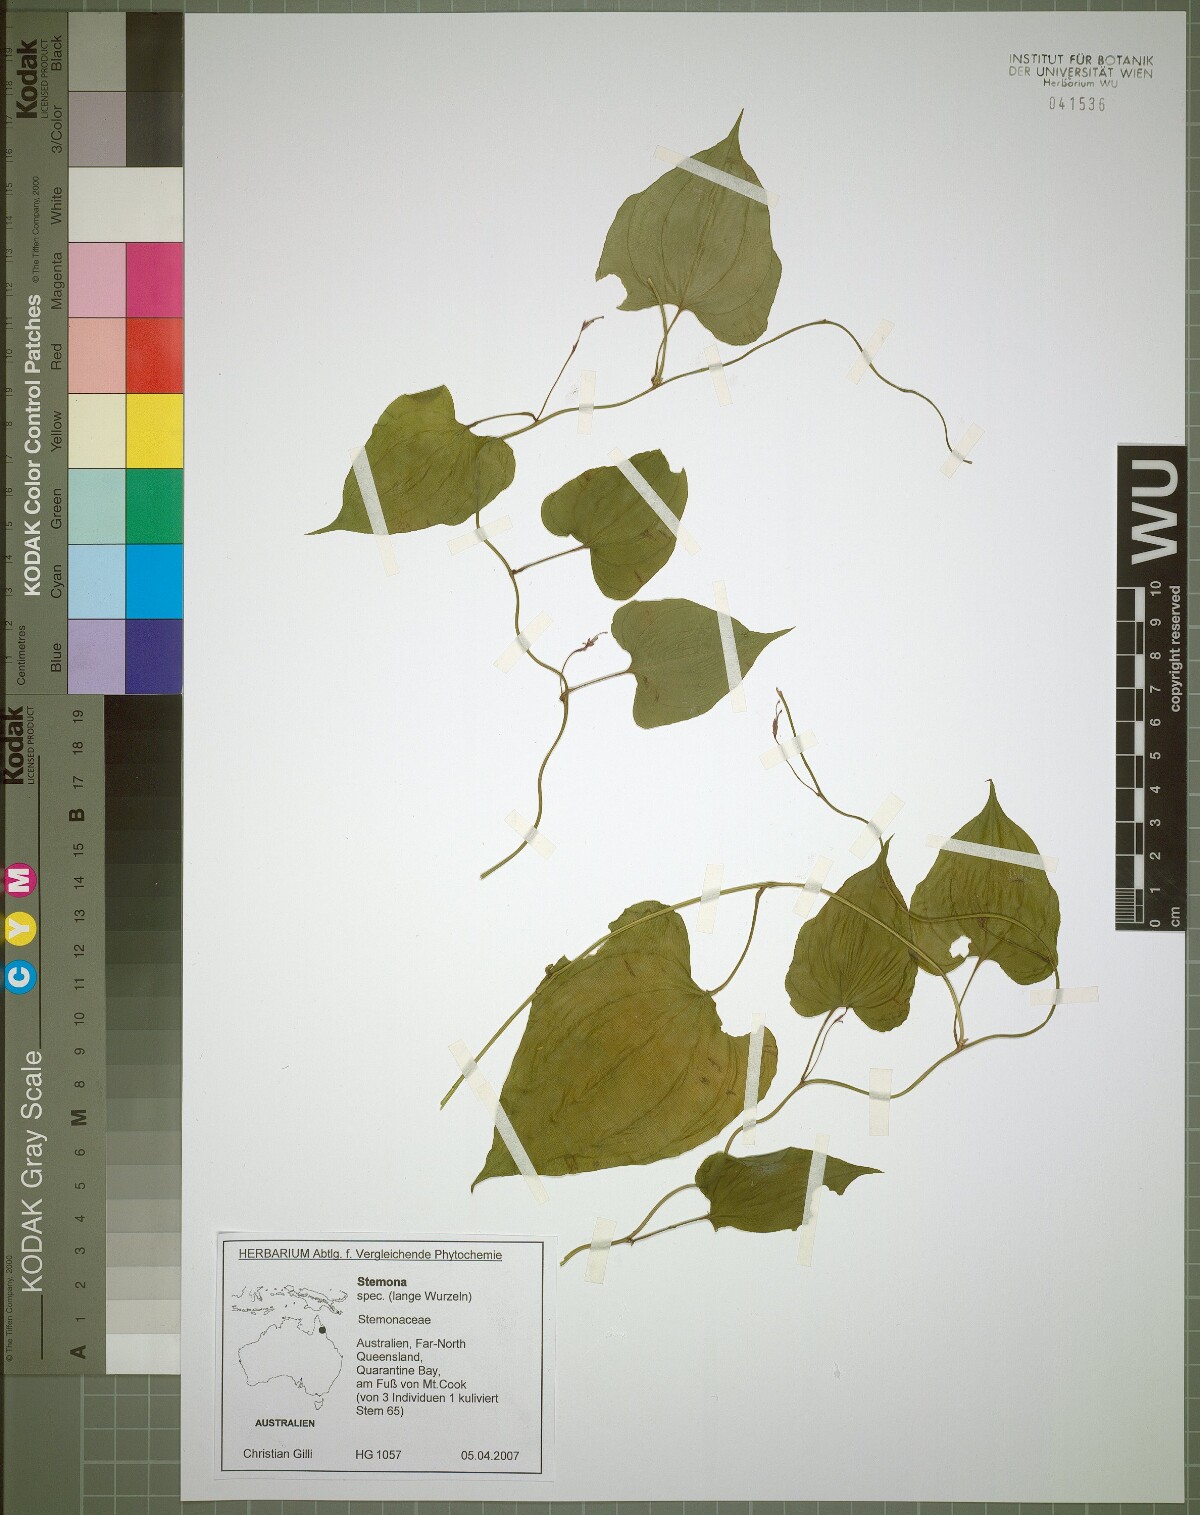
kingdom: Plantae
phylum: Tracheophyta
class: Liliopsida
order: Pandanales
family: Stemonaceae
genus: Stemona
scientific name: Stemona lucida
